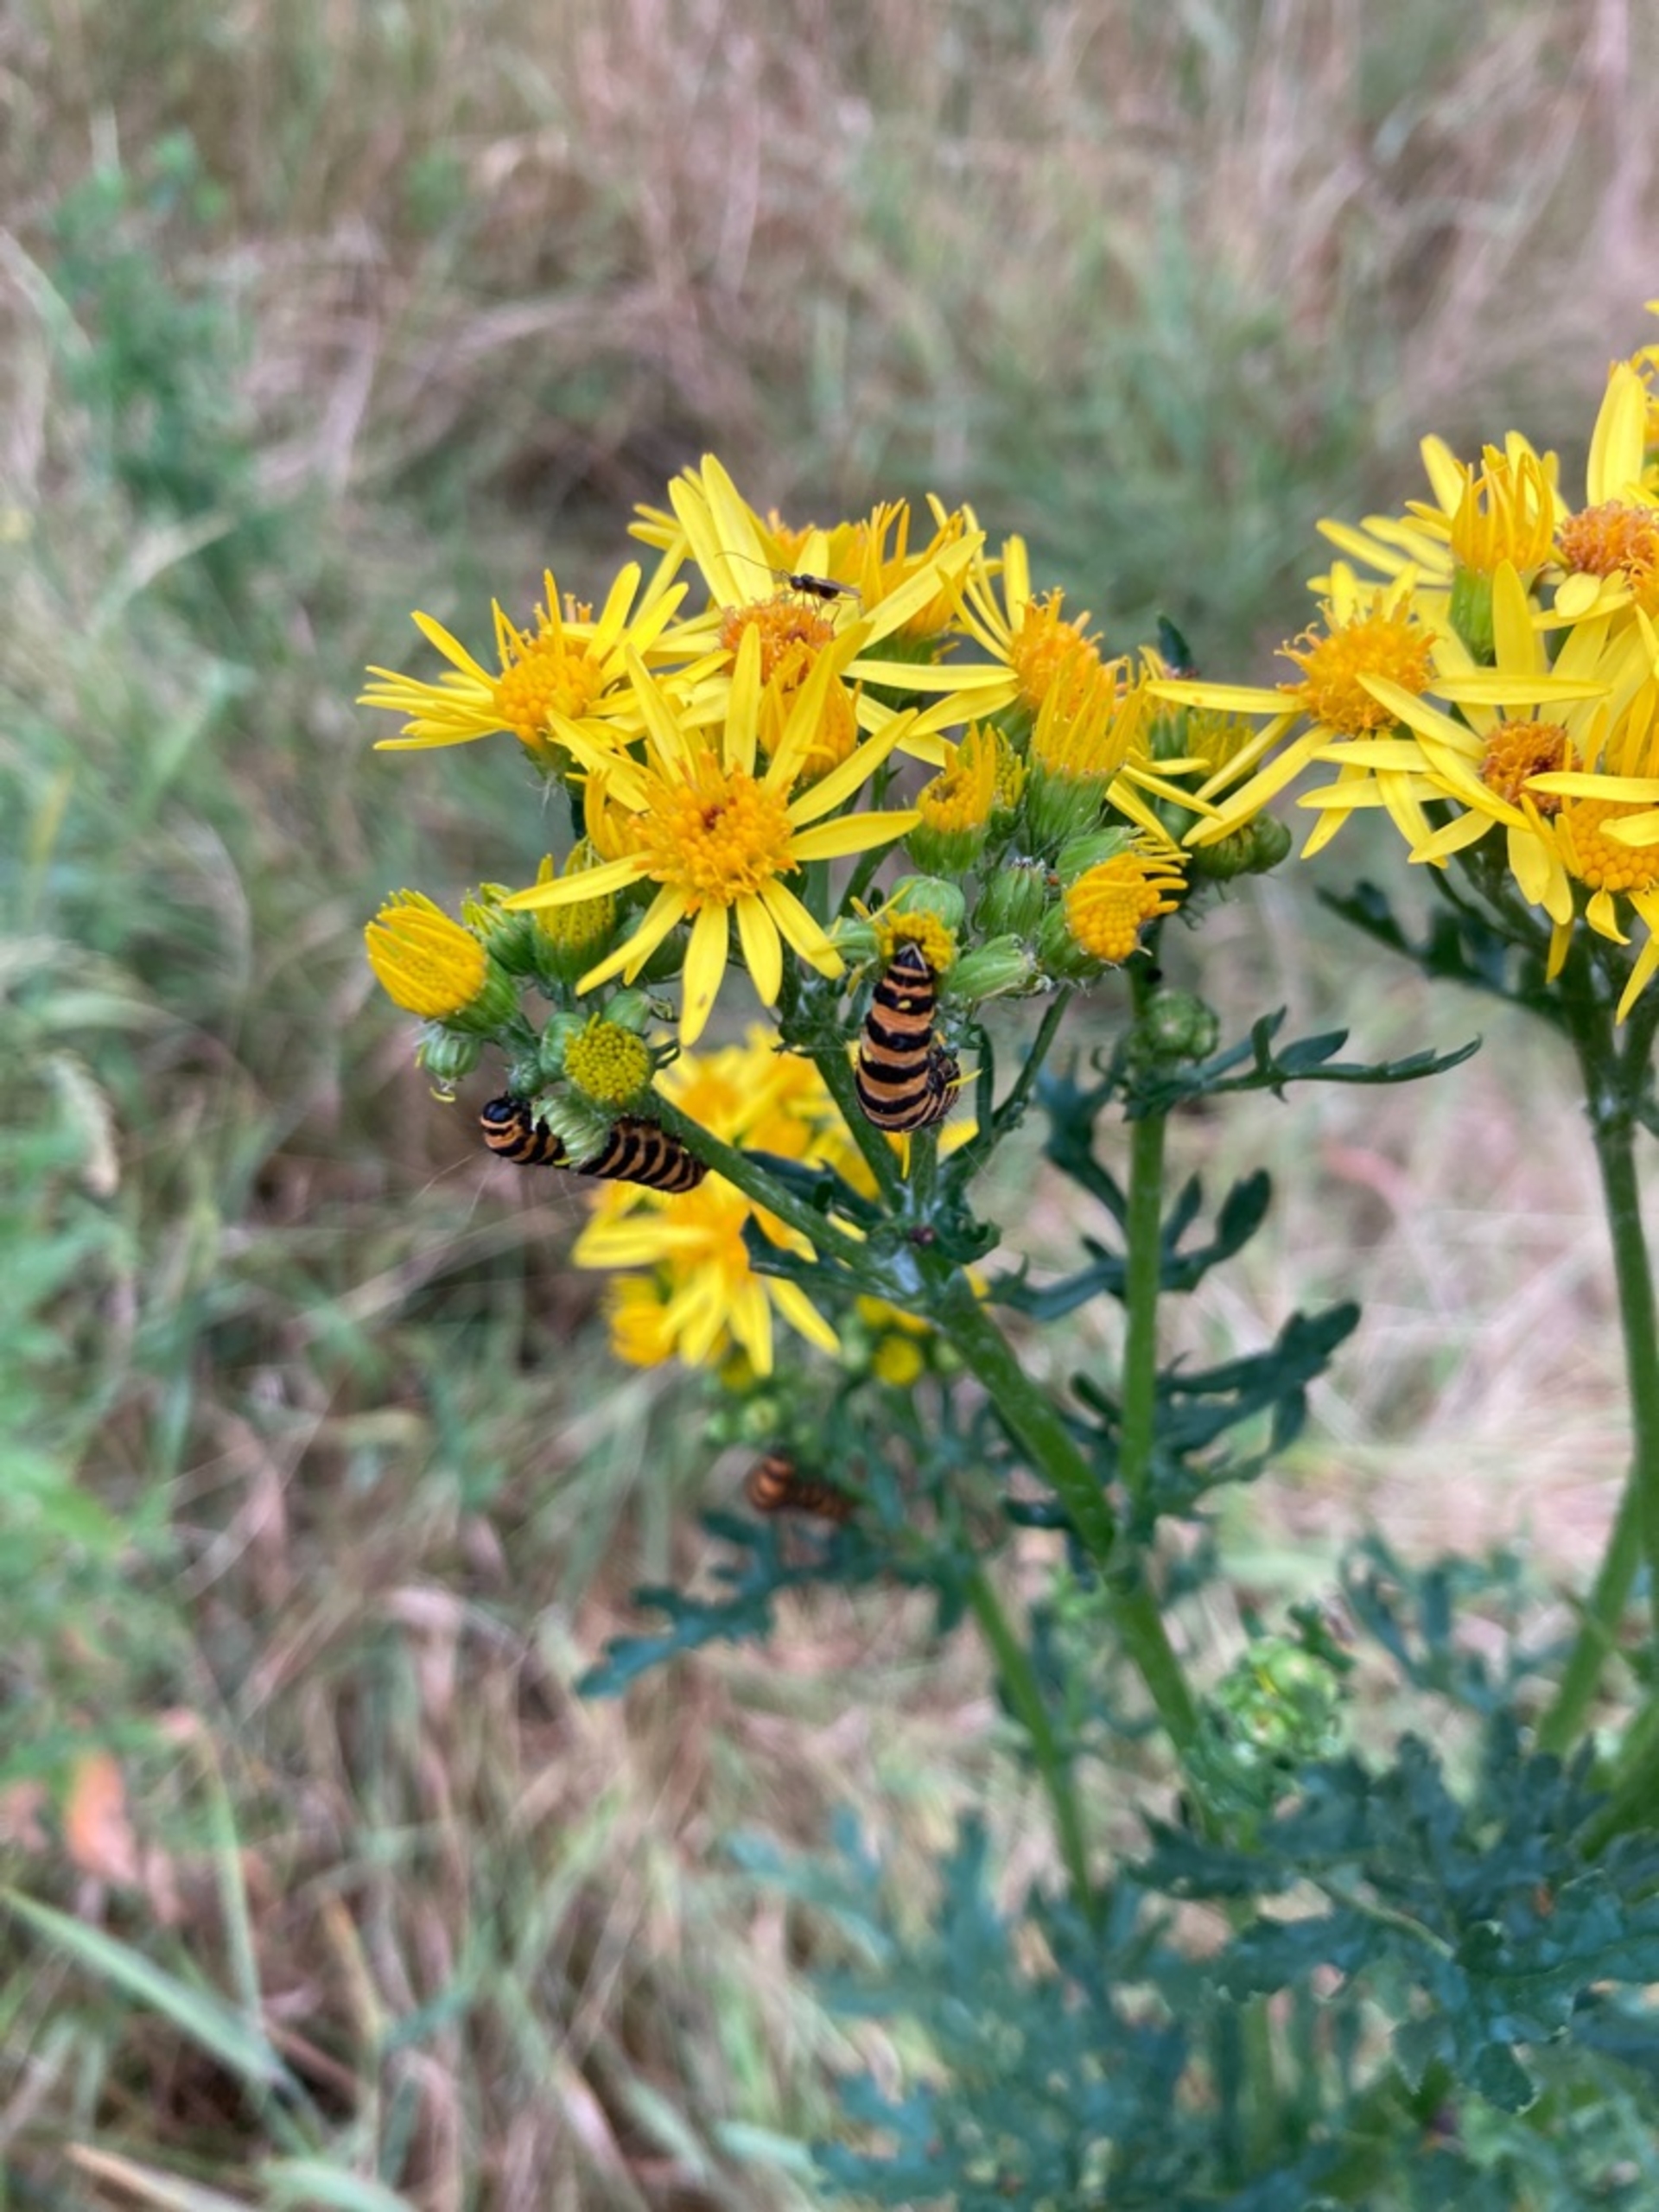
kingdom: Animalia
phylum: Arthropoda
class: Insecta
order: Lepidoptera
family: Erebidae
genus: Tyria
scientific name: Tyria jacobaeae
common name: Blodplet
